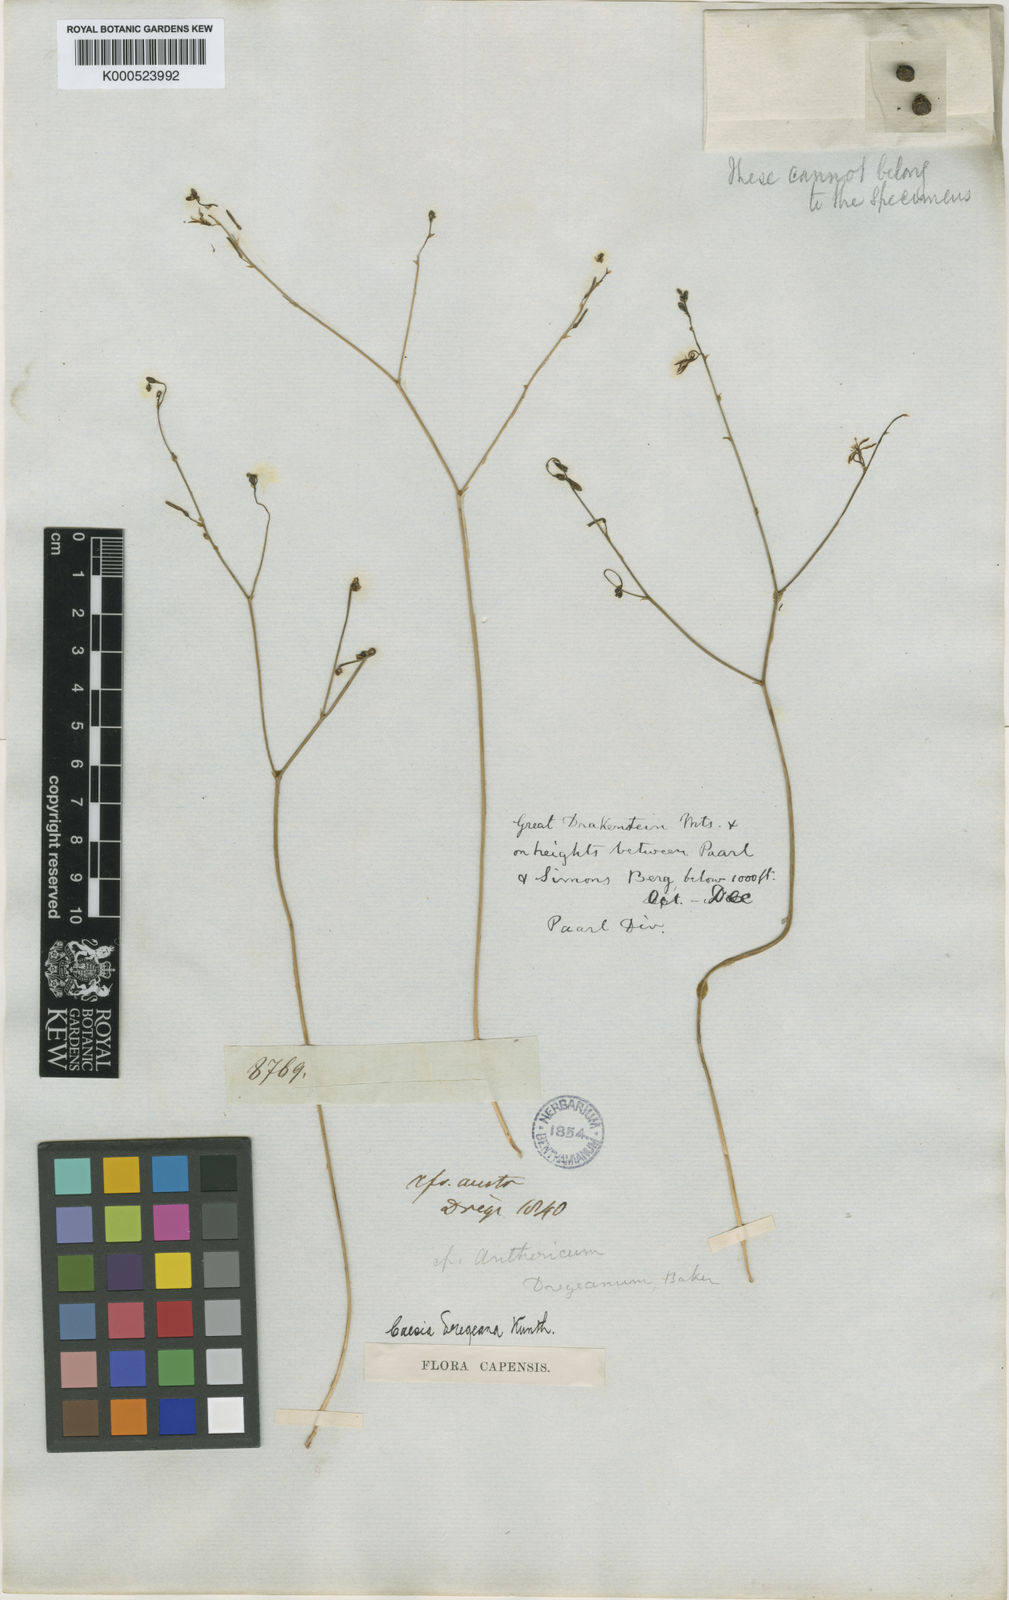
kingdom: Plantae
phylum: Tracheophyta
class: Liliopsida
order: Asparagales
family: Asphodelaceae
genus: Caesia
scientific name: Caesia contorta
